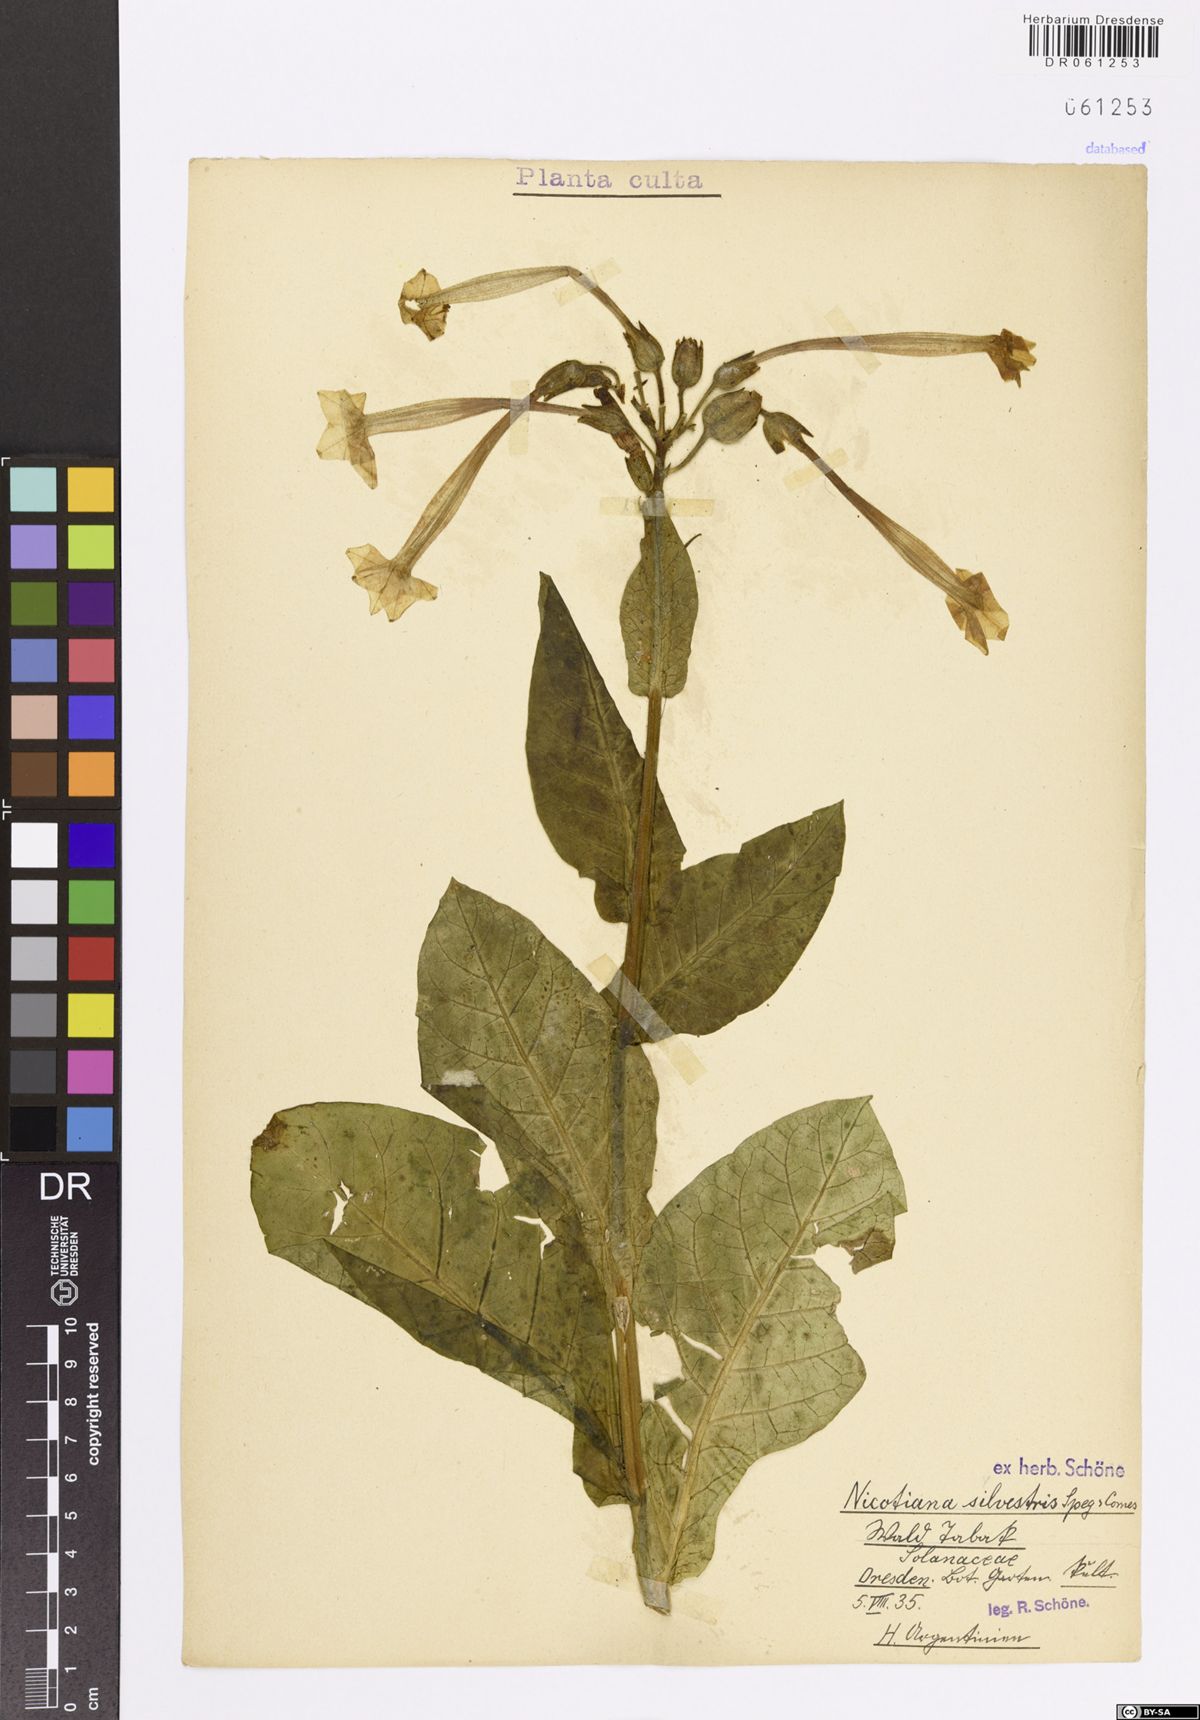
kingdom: Plantae
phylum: Tracheophyta
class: Magnoliopsida
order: Solanales
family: Solanaceae
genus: Nicotiana
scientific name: Nicotiana sylvestris
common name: Flowering tobacco
